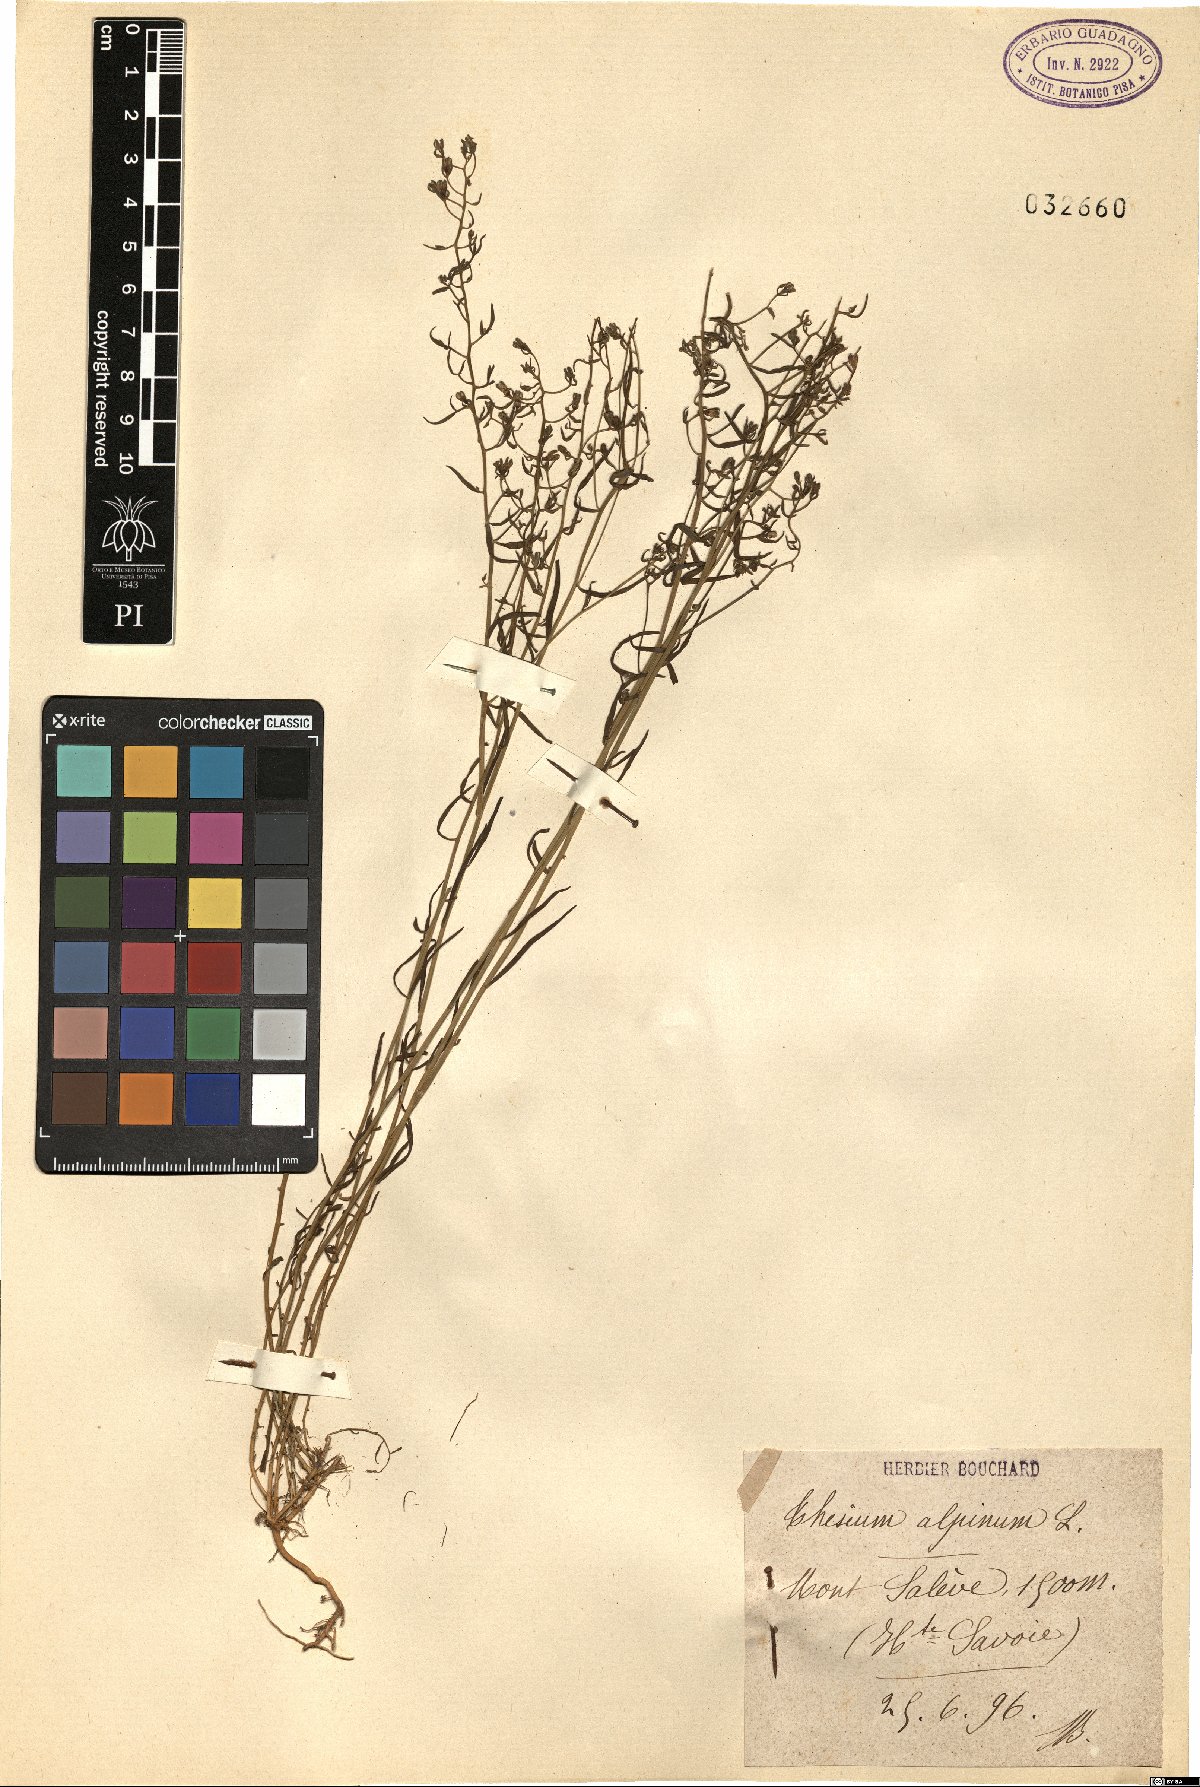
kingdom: Plantae
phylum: Tracheophyta
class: Magnoliopsida
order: Santalales
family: Thesiaceae
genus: Thesium
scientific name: Thesium alpinum
